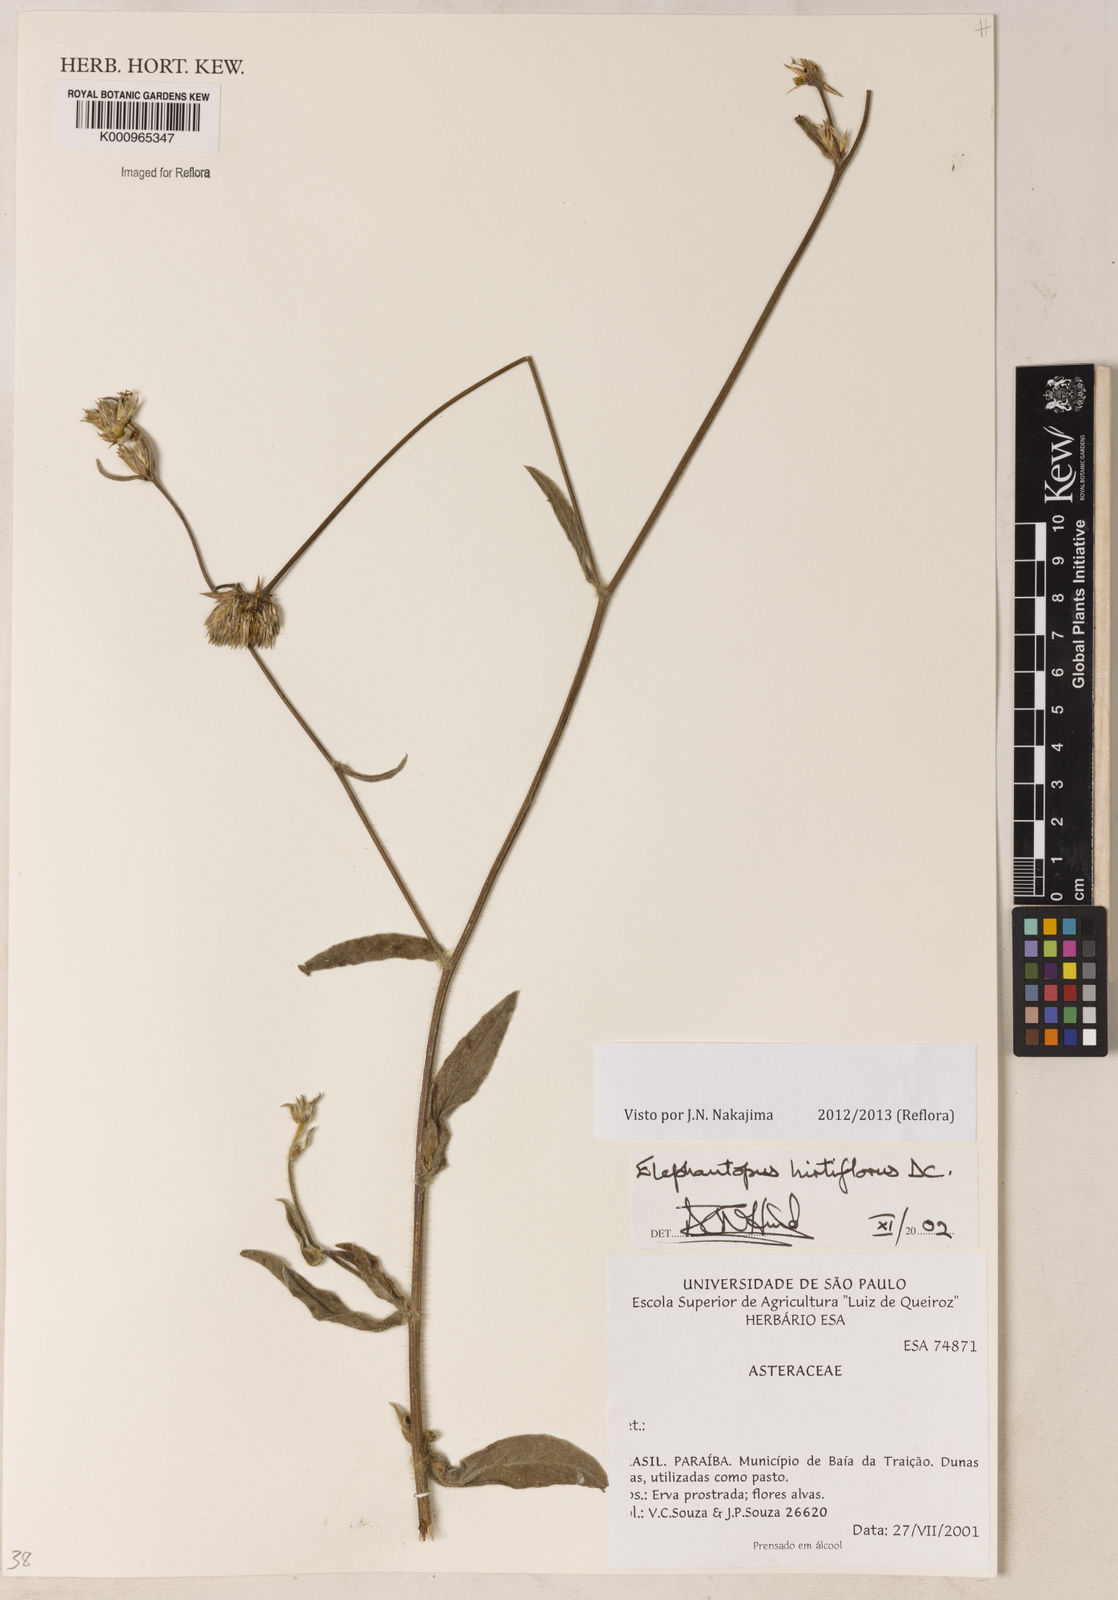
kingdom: Plantae
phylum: Tracheophyta
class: Magnoliopsida
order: Asterales
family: Asteraceae
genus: Orthopappus
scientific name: Orthopappus angustifolius
